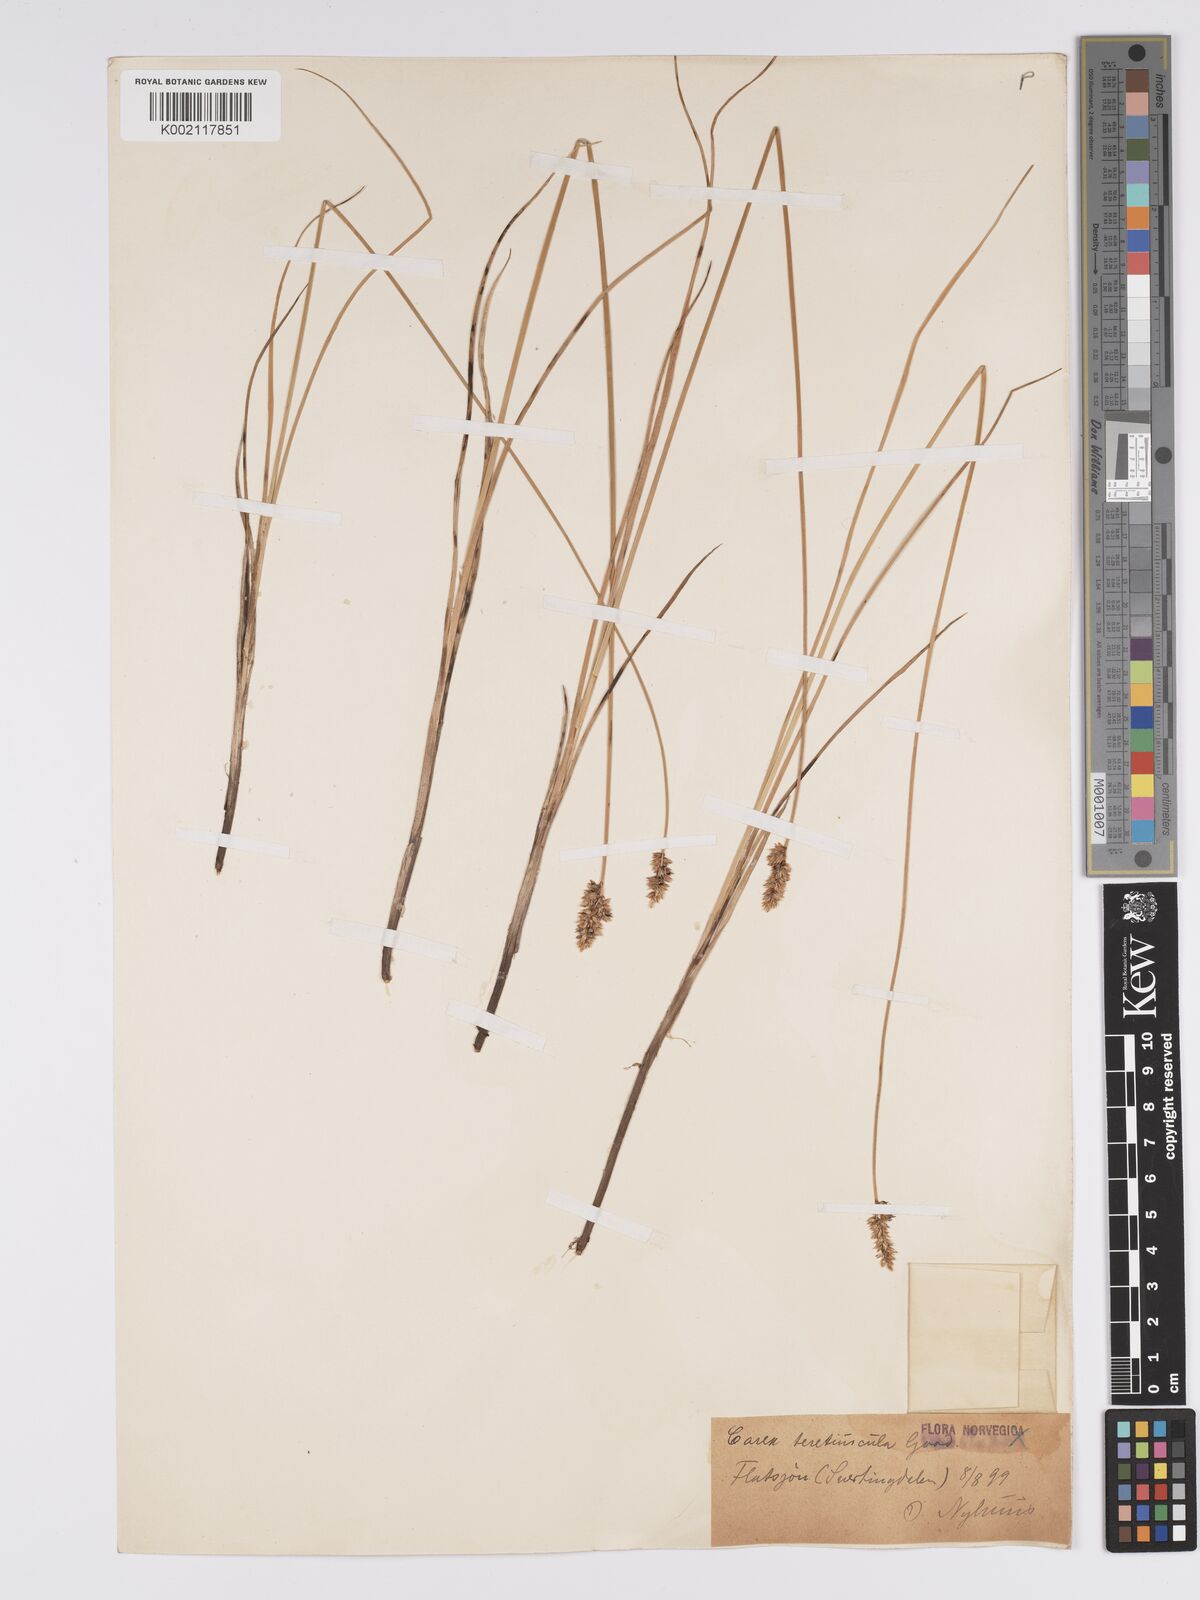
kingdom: Plantae
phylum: Tracheophyta
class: Liliopsida
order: Poales
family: Cyperaceae
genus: Carex
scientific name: Carex diandra
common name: Lesser tussock-sedge
